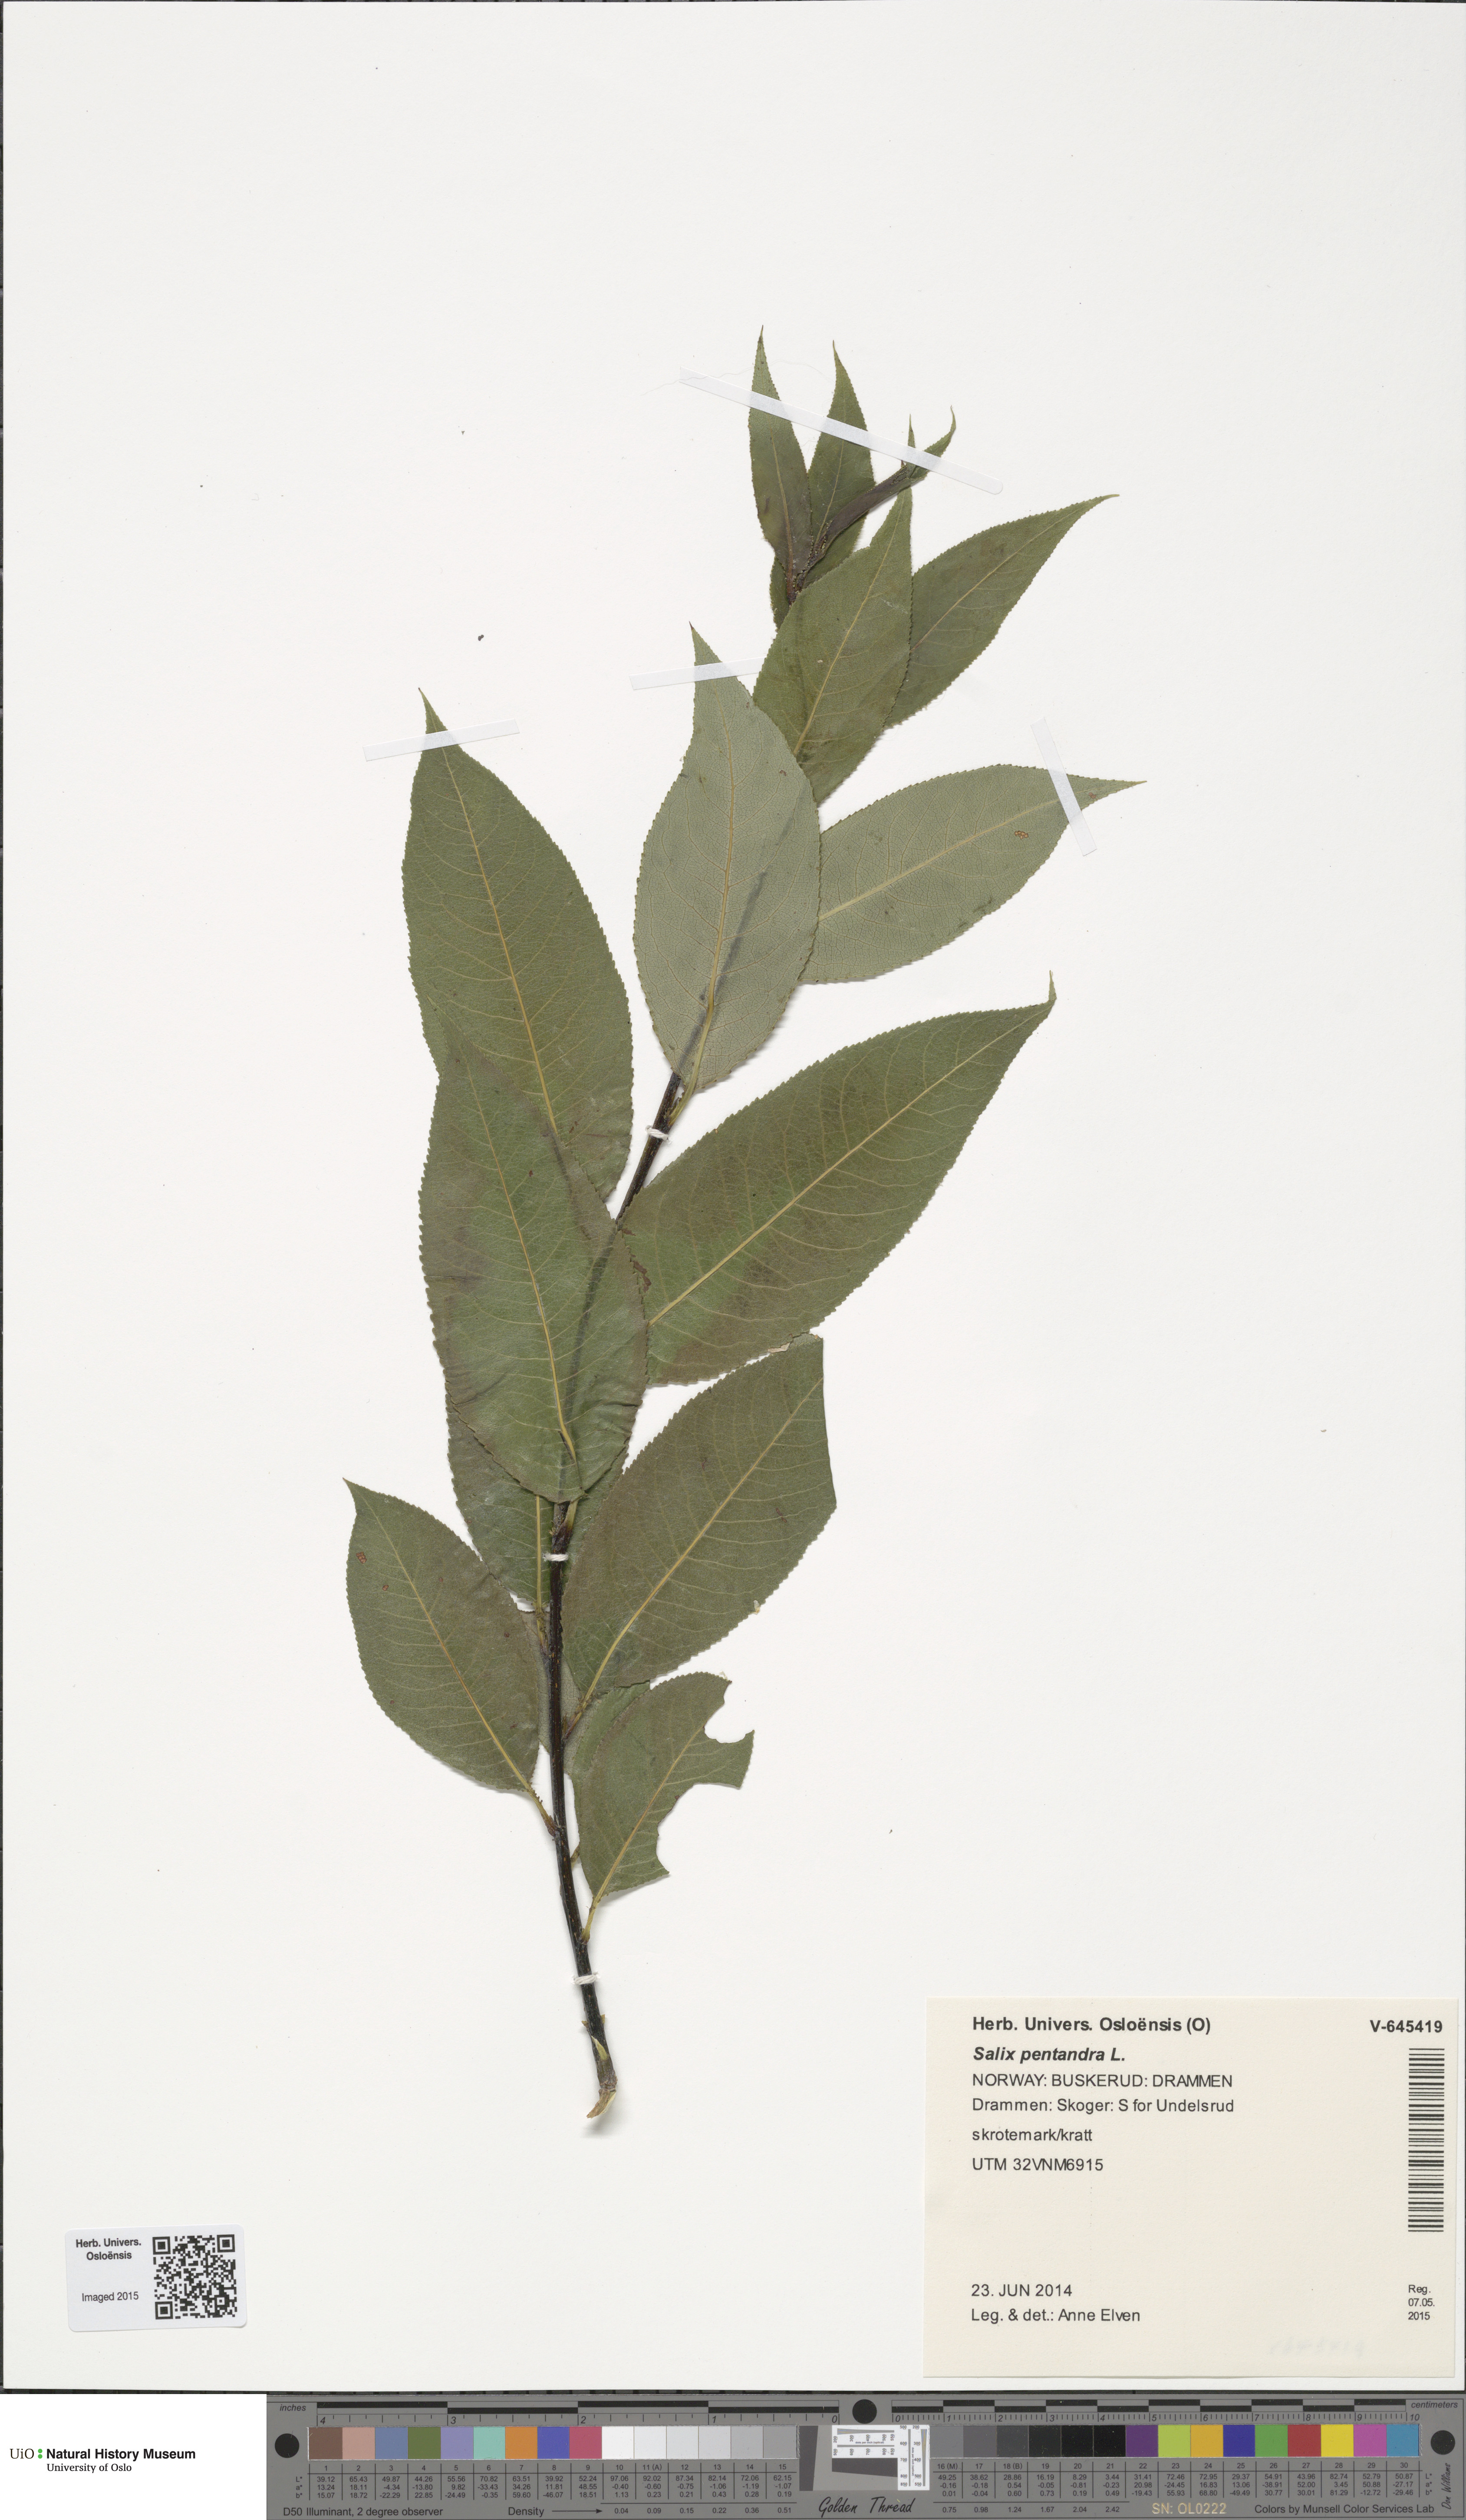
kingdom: Plantae
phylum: Tracheophyta
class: Magnoliopsida
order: Malpighiales
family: Salicaceae
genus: Salix
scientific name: Salix pentandra
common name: Bay willow
